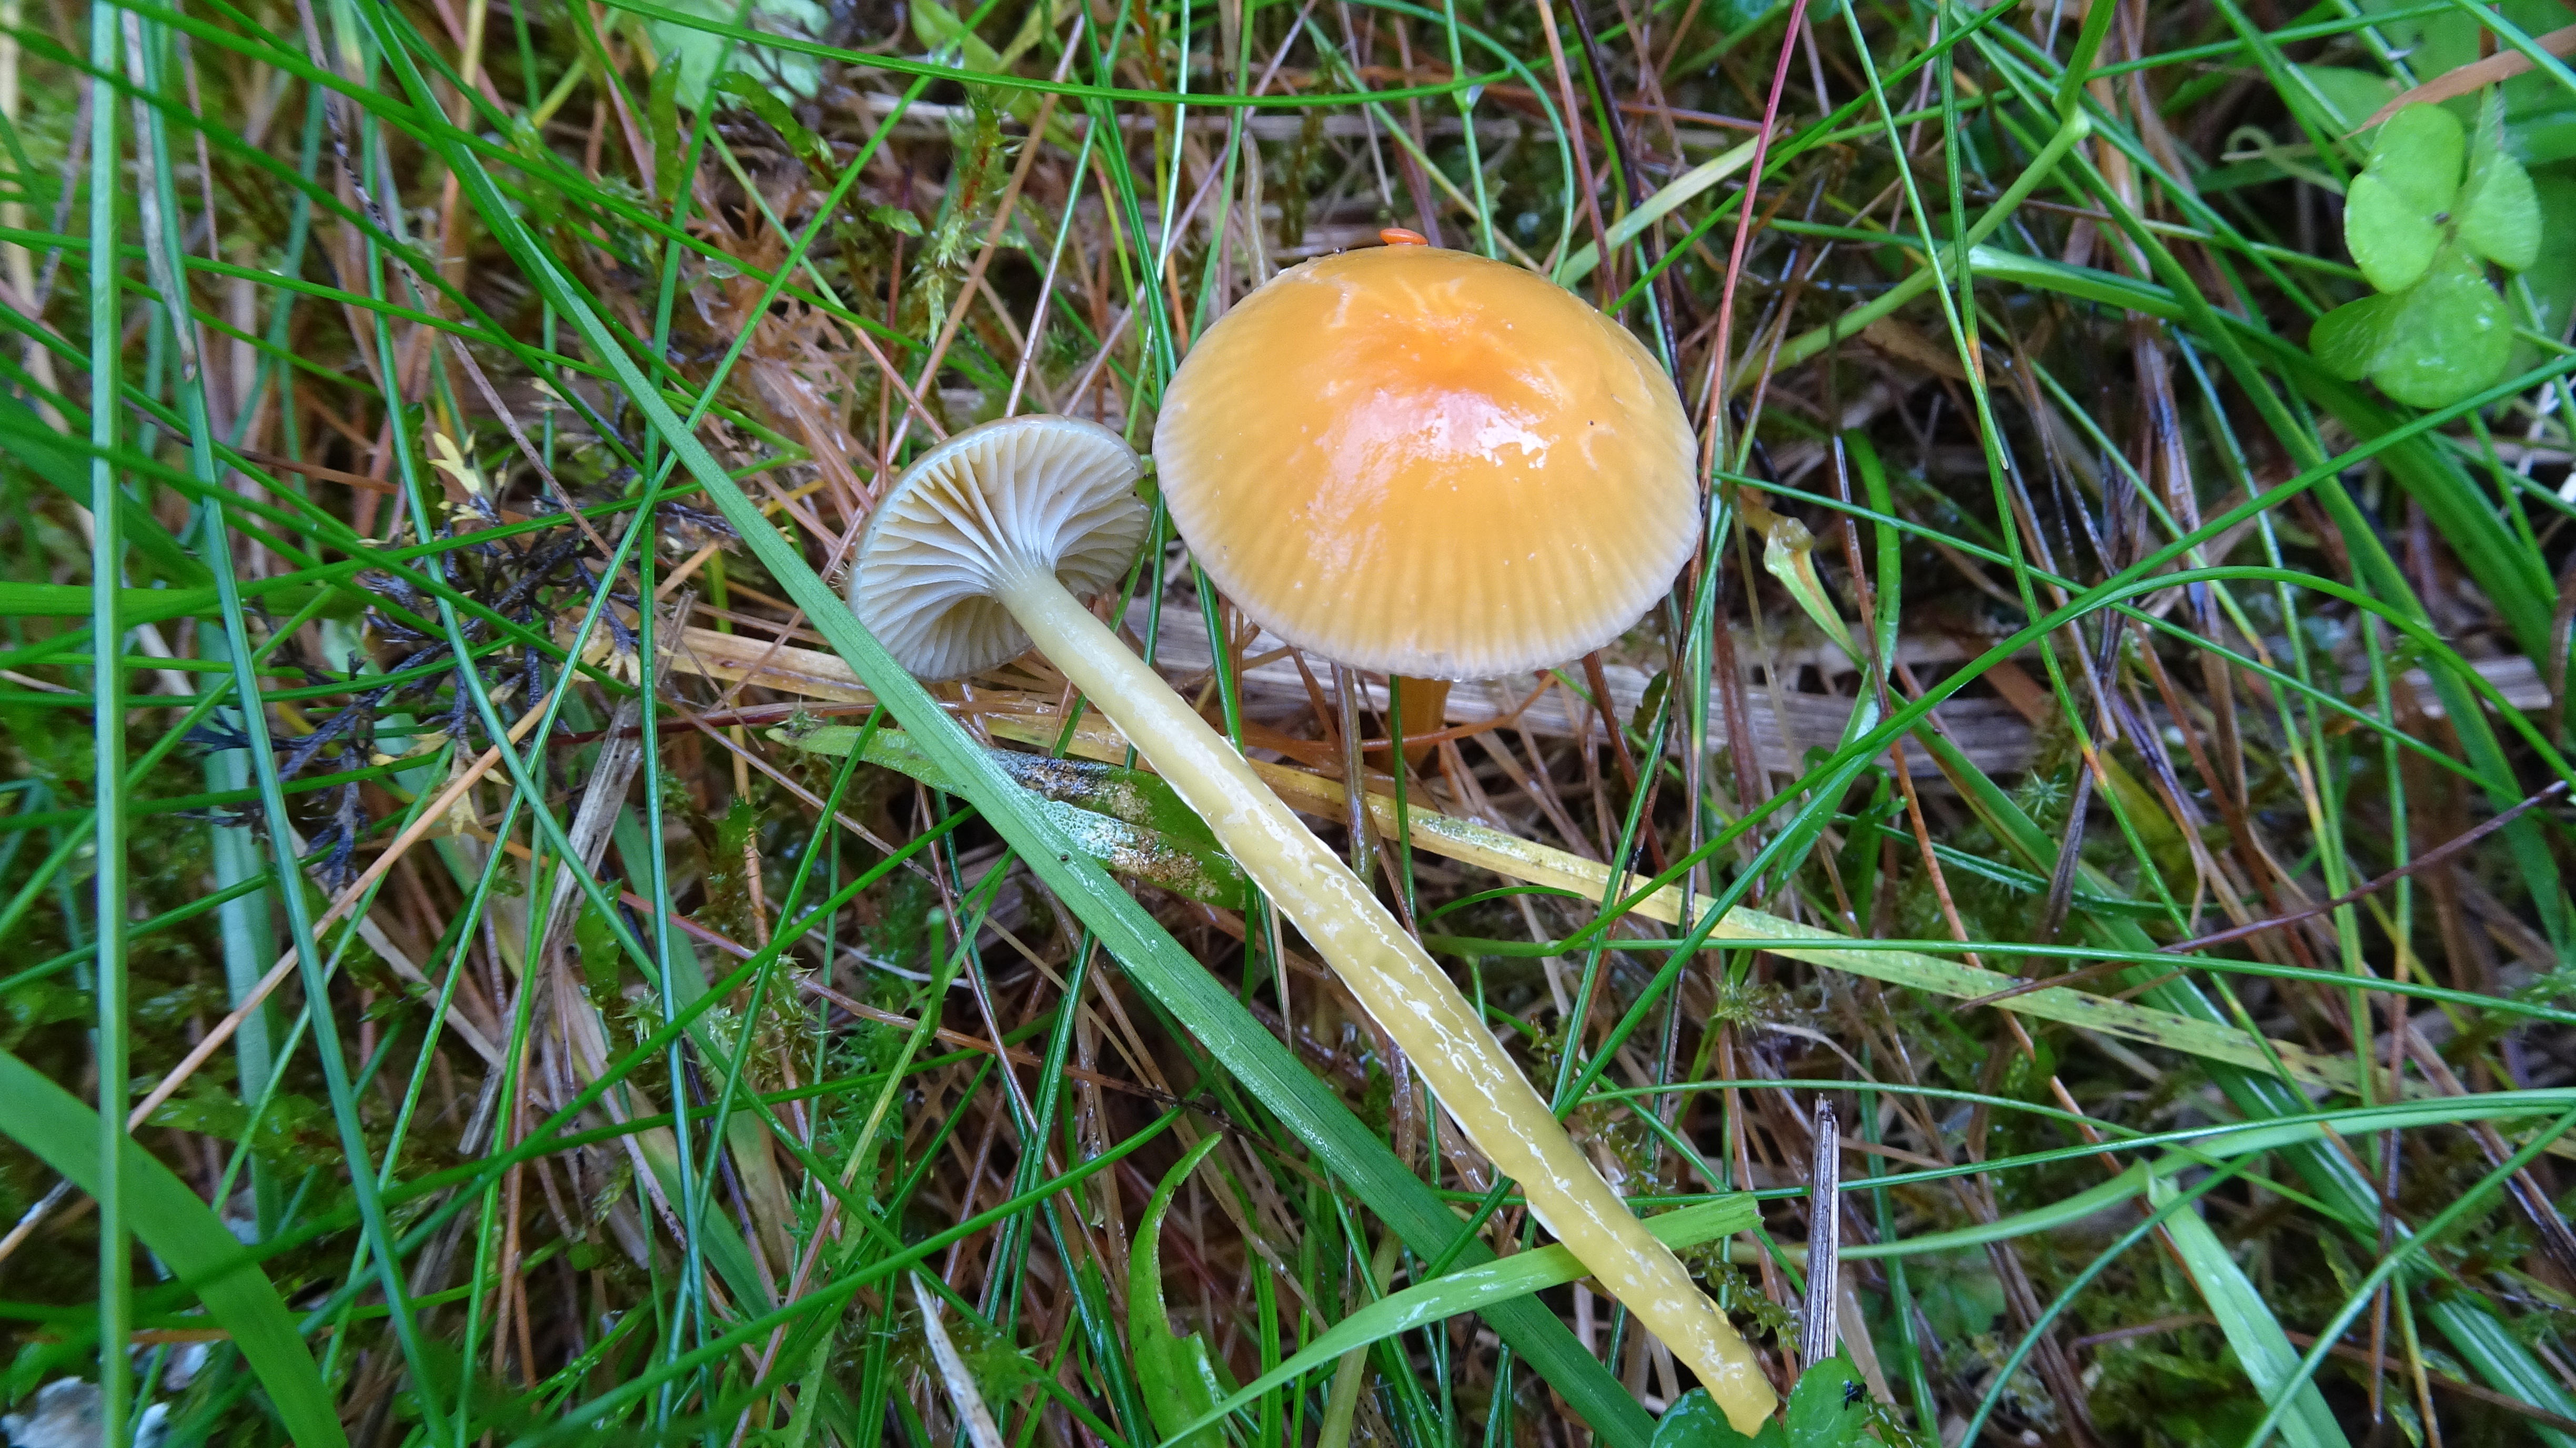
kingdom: Fungi
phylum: Basidiomycota
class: Agaricomycetes
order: Agaricales
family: Hygrophoraceae
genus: Gliophorus
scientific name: Gliophorus laetus
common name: Heath waxcap
